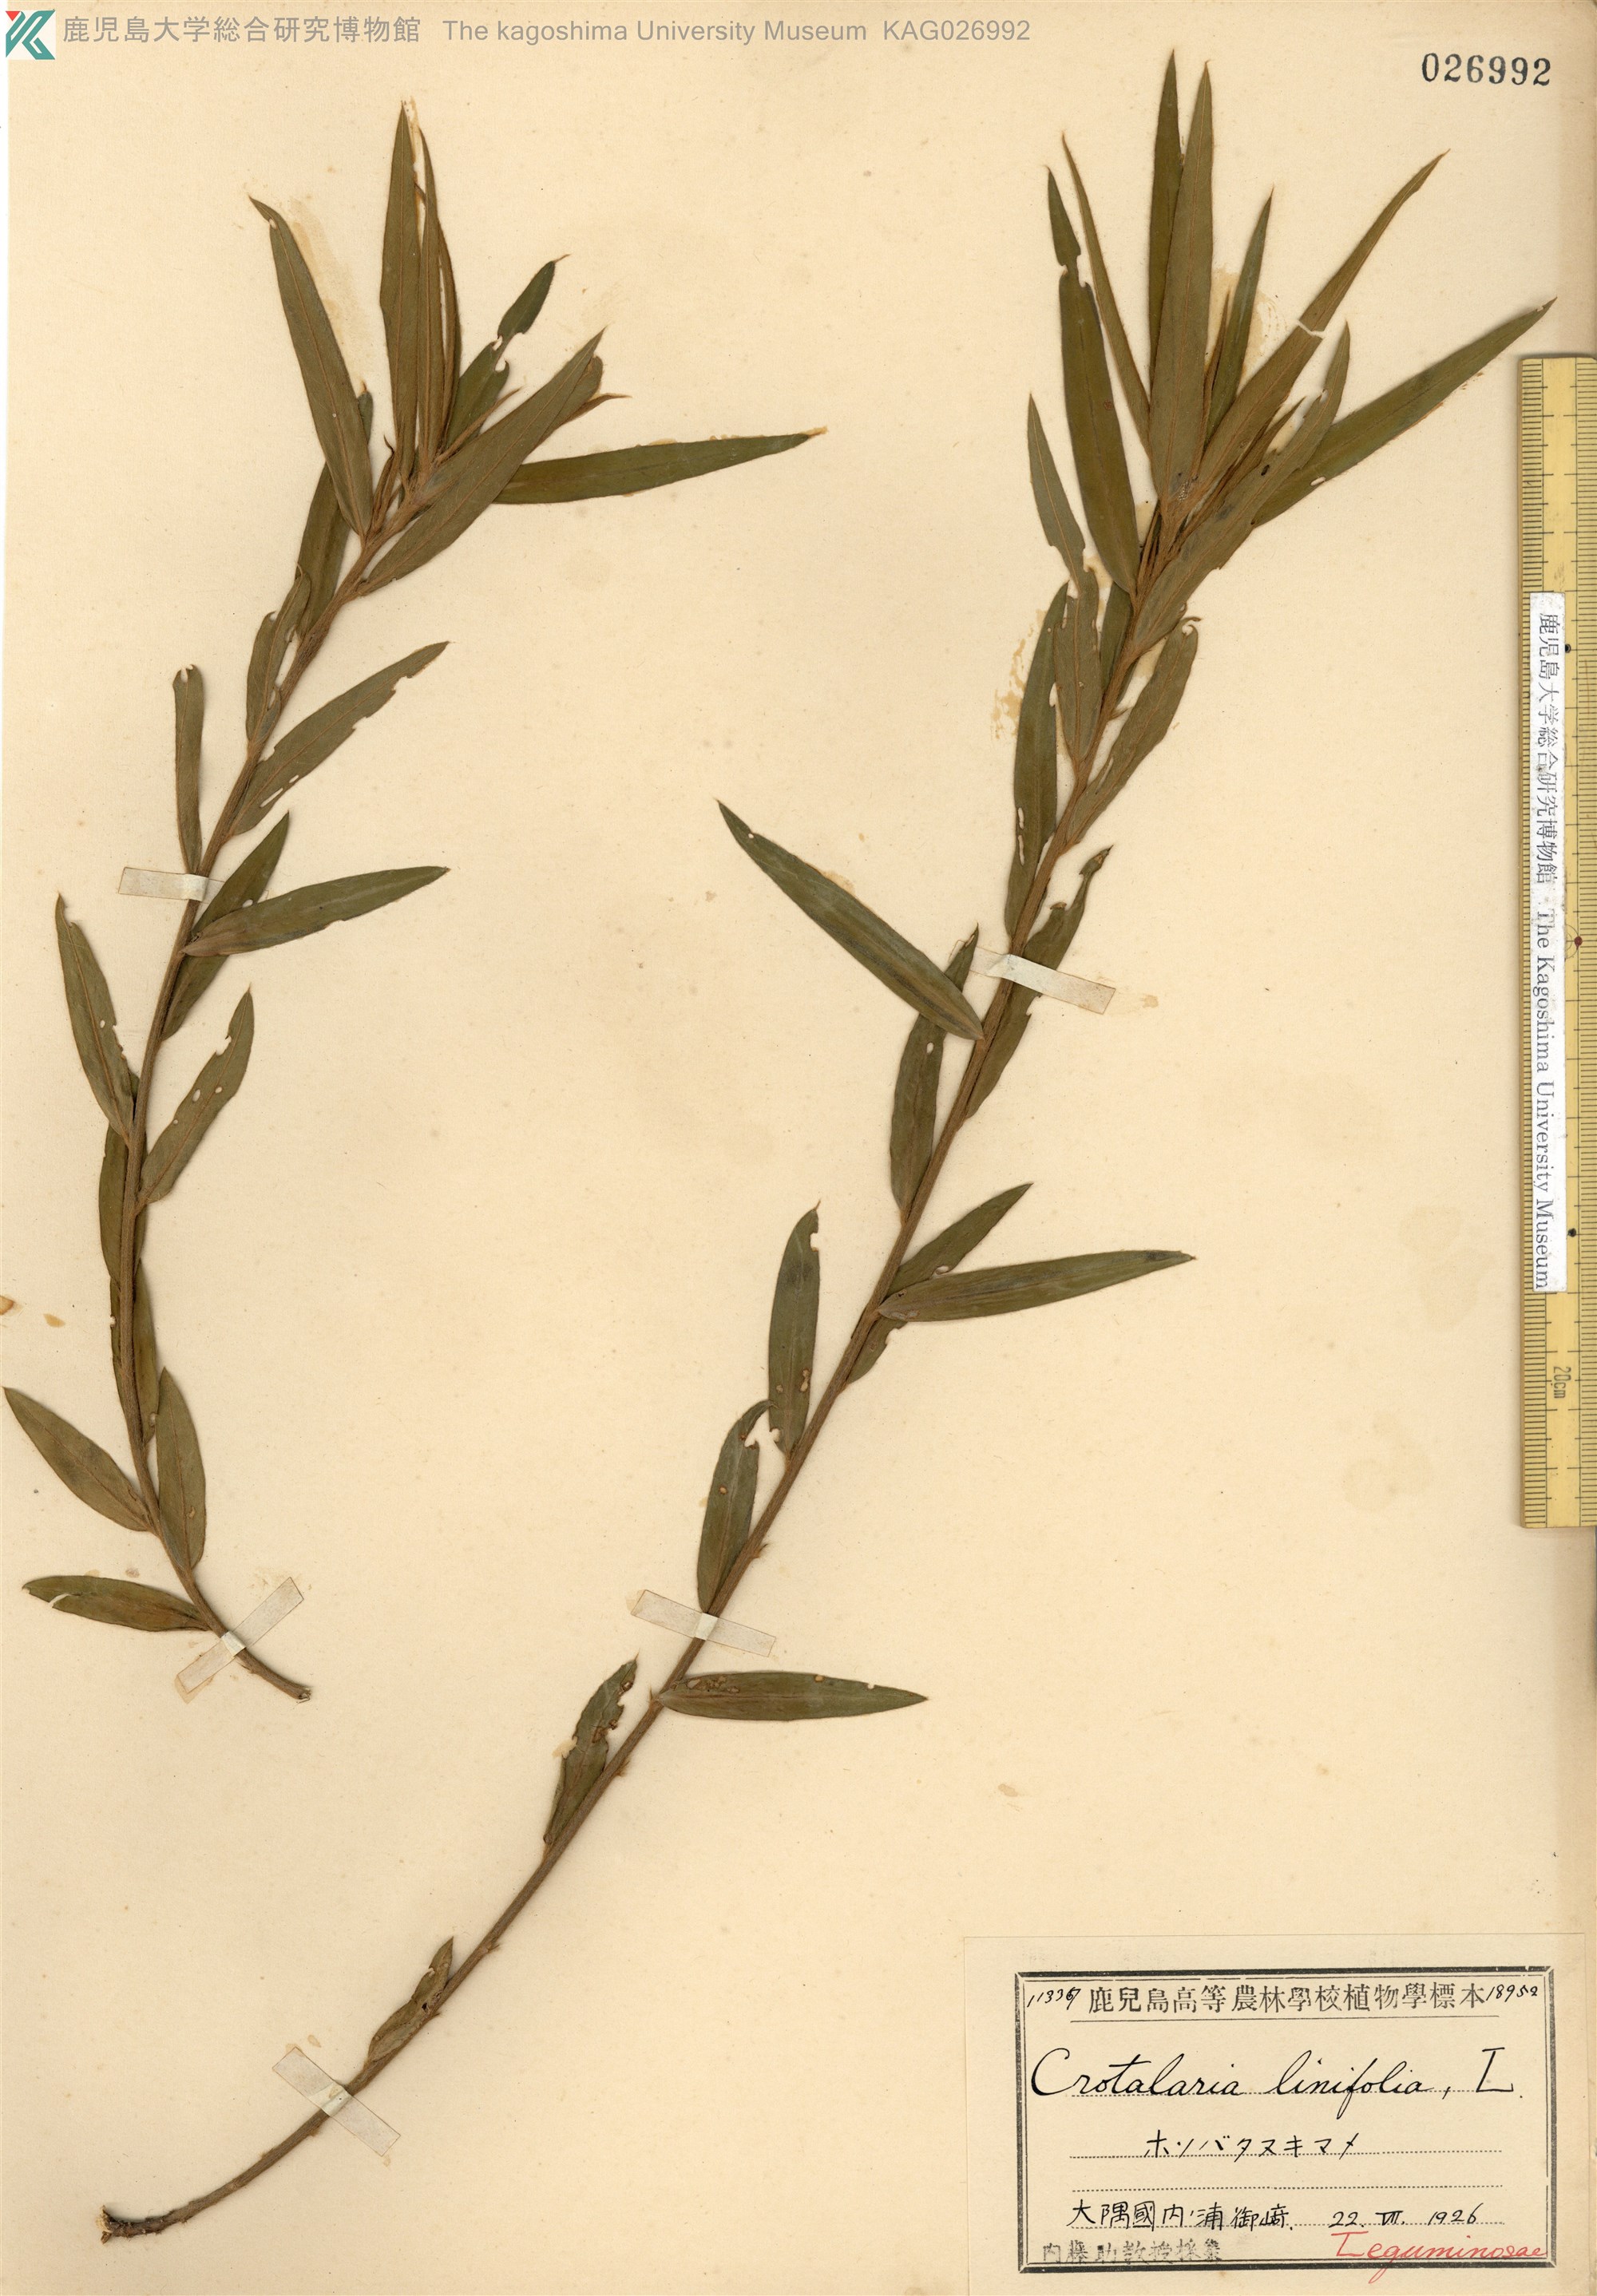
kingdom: Plantae
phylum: Tracheophyta
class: Magnoliopsida
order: Fabales
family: Fabaceae
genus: Crotalaria
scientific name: Crotalaria sessiliflora
